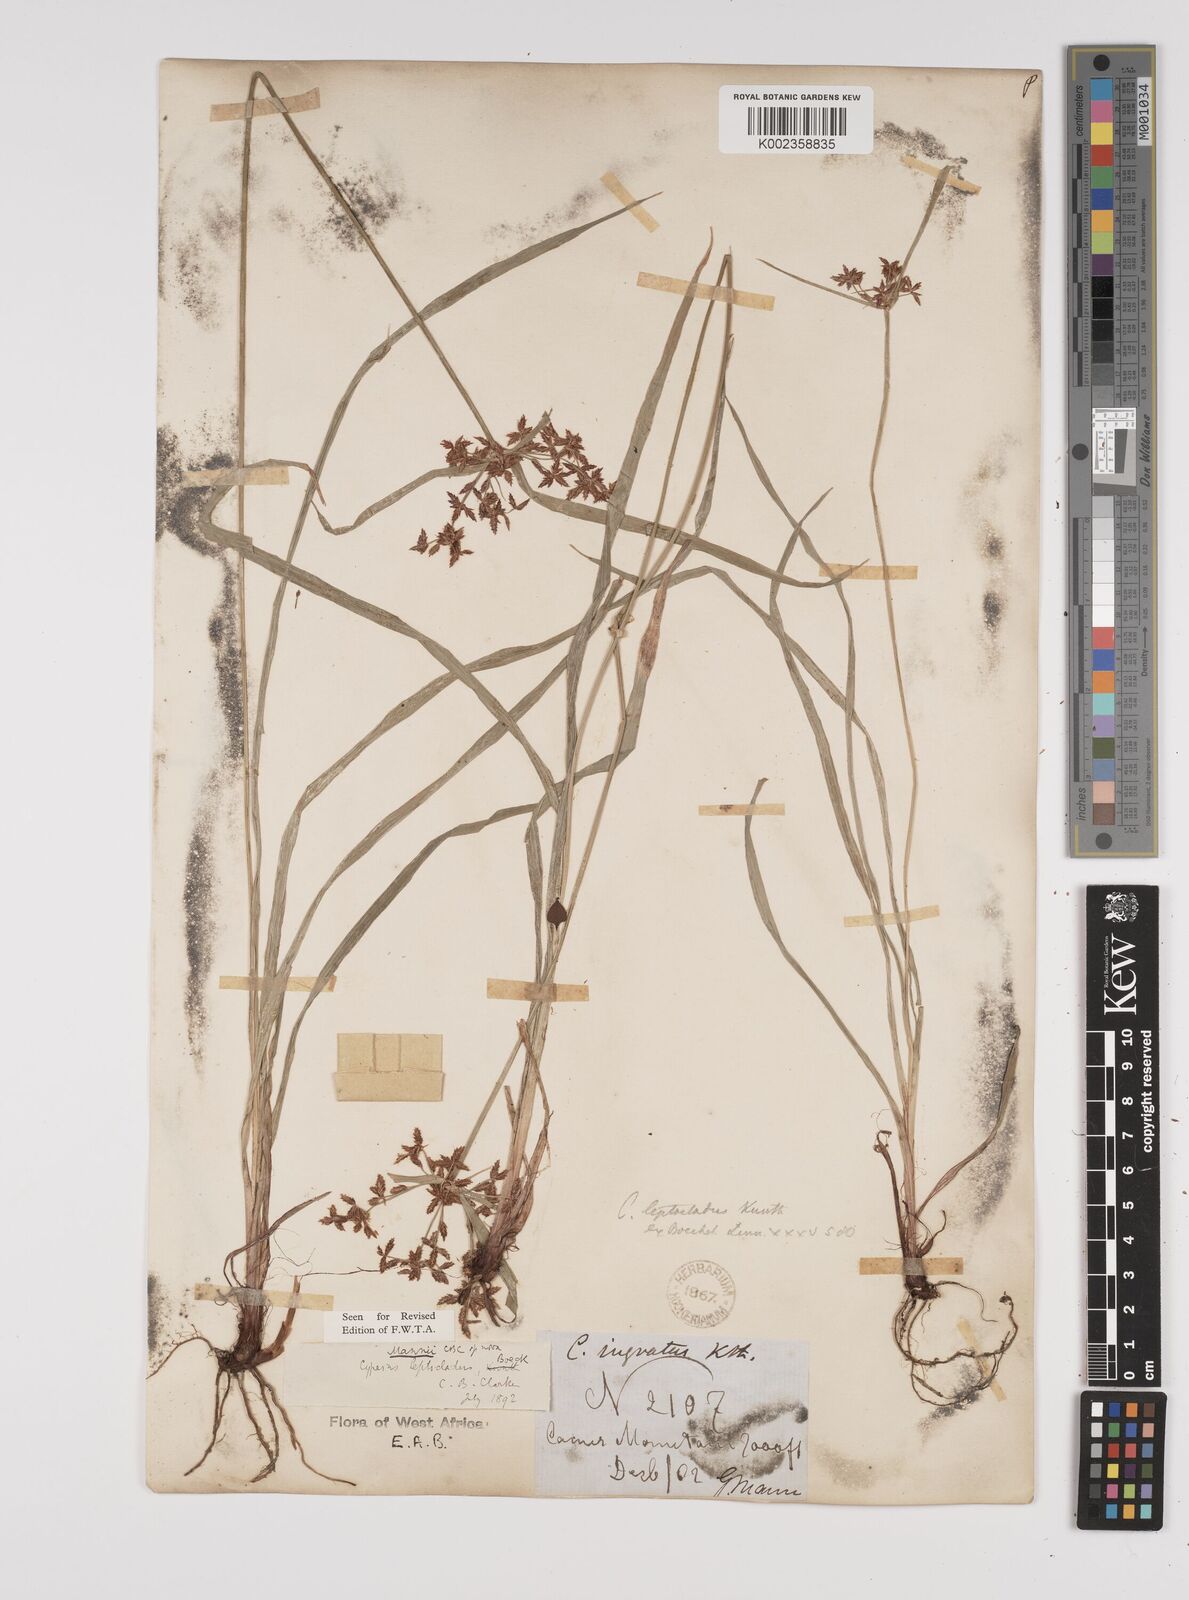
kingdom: Plantae
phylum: Tracheophyta
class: Liliopsida
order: Poales
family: Cyperaceae
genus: Cyperus
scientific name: Cyperus baronii
